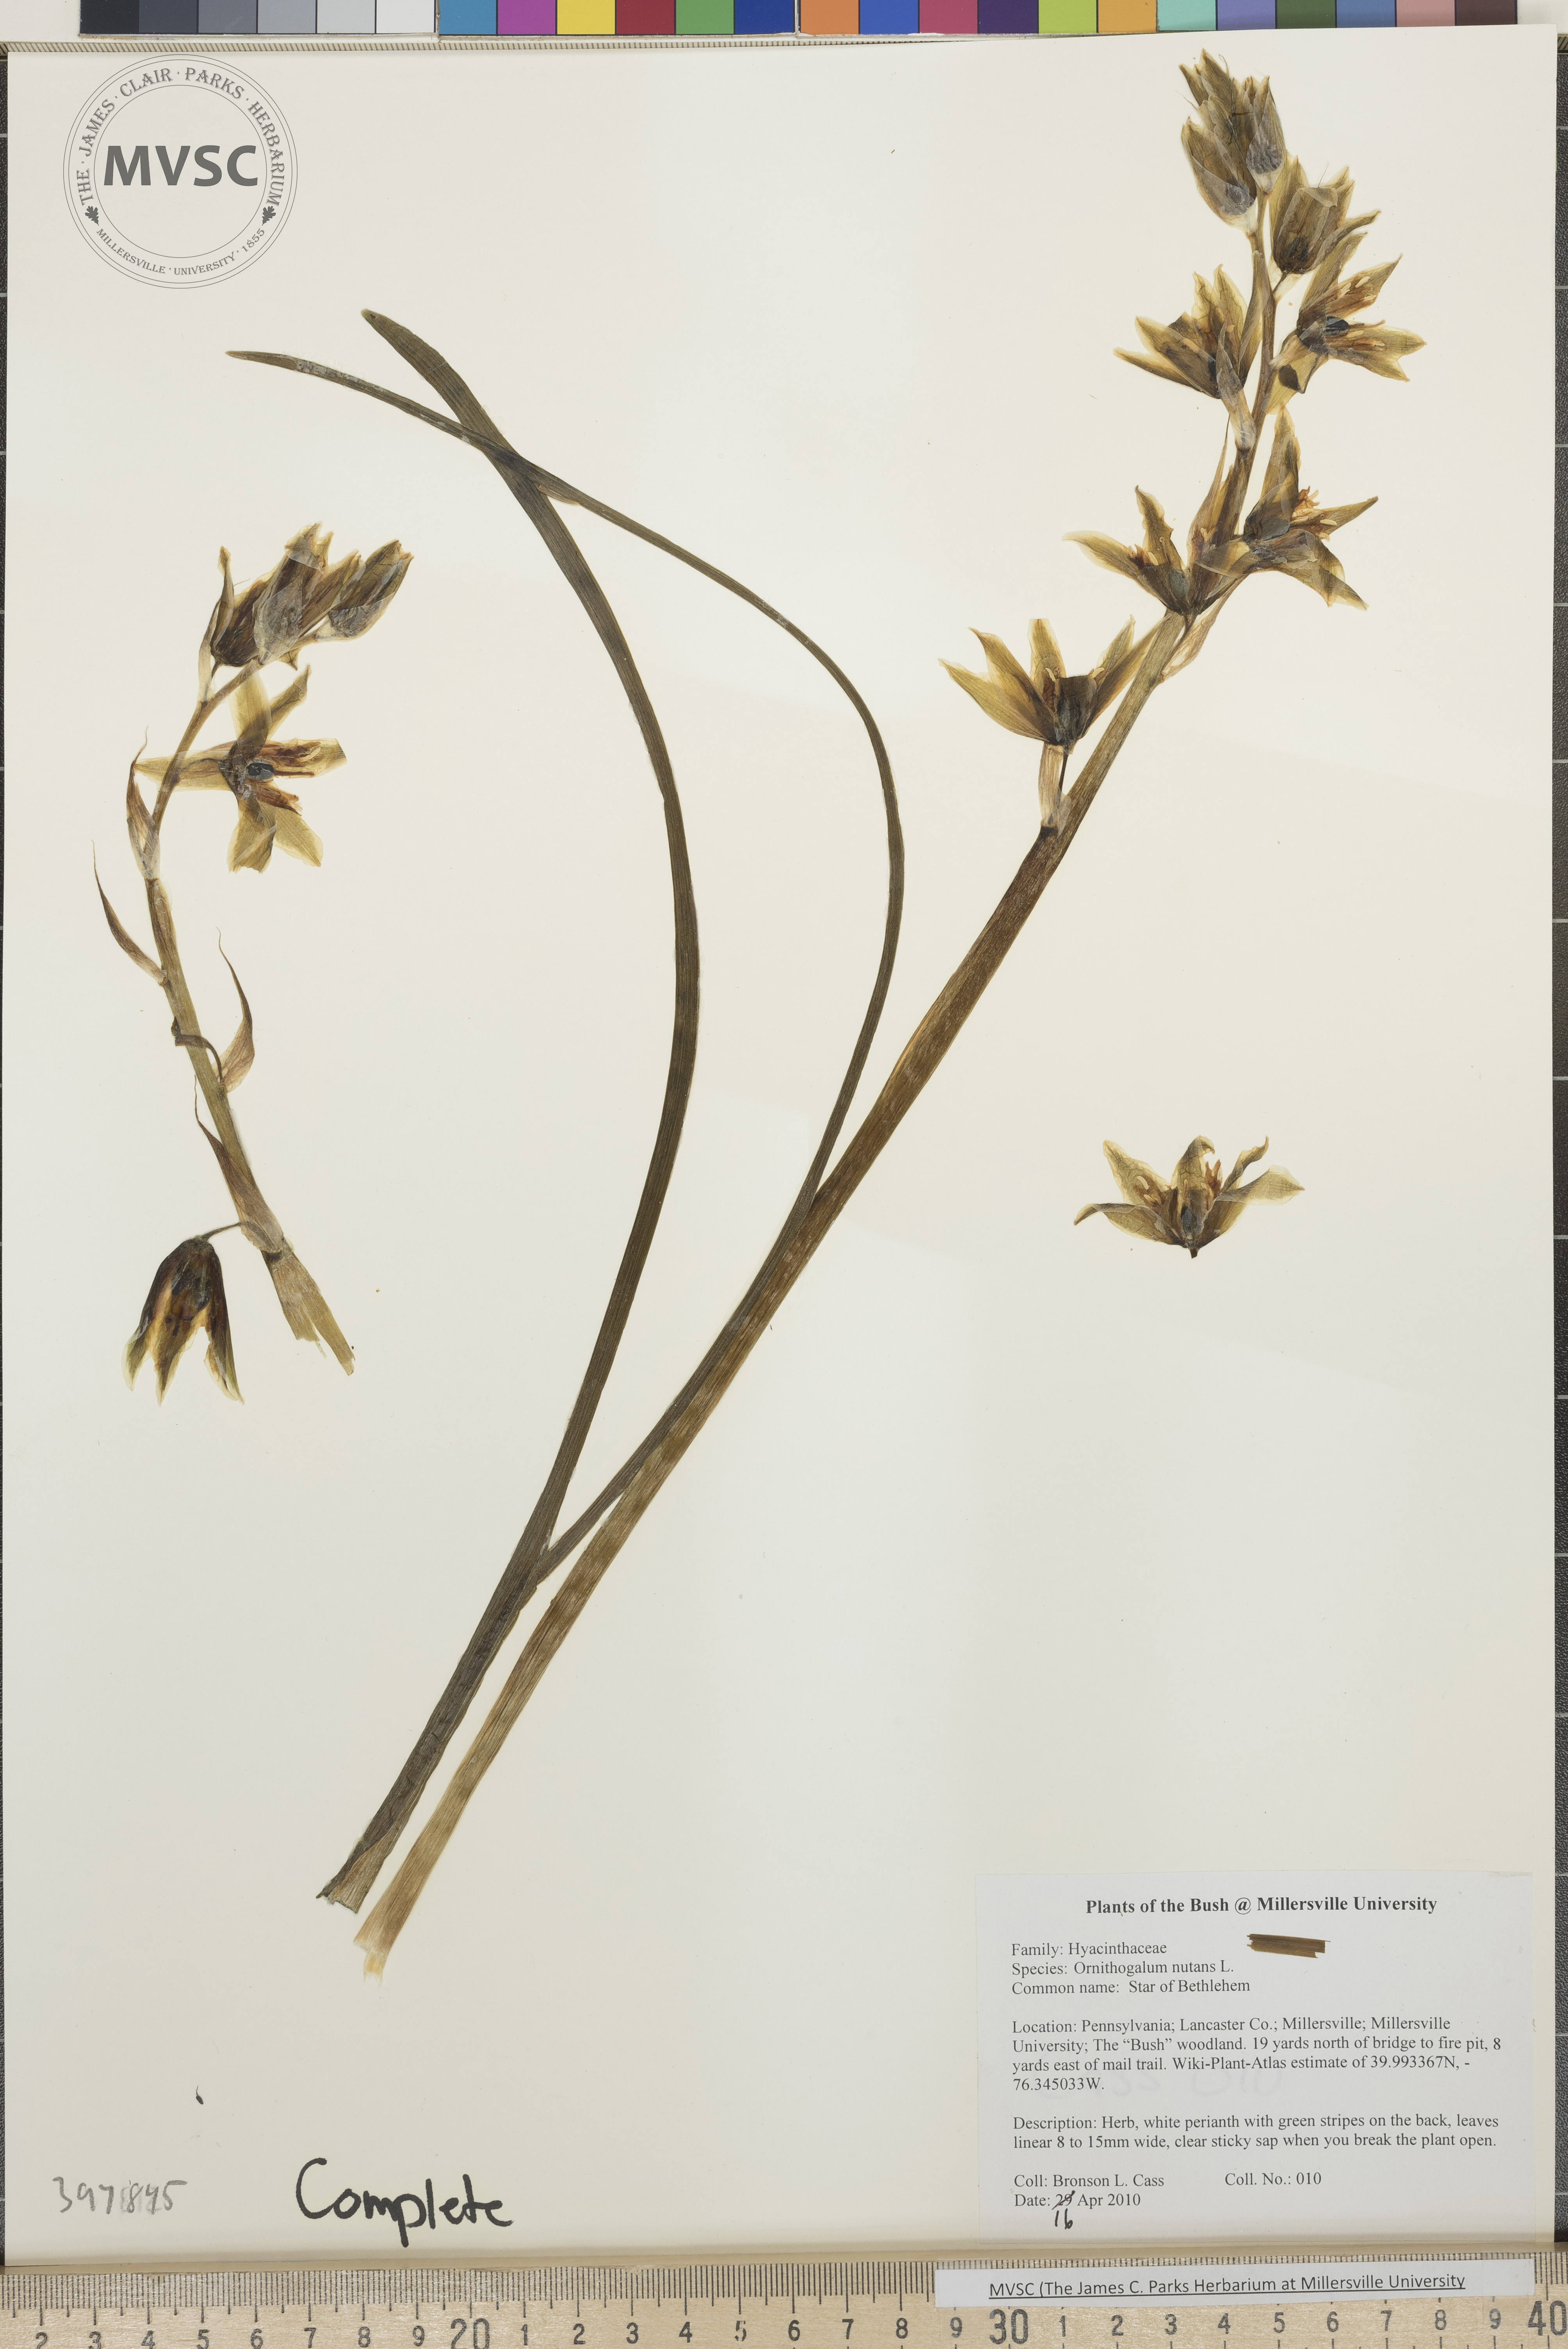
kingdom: Plantae
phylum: Tracheophyta
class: Liliopsida
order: Asparagales
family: Asparagaceae
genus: Ornithogalum
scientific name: Ornithogalum nutans
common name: Star-of-Bethlehem
